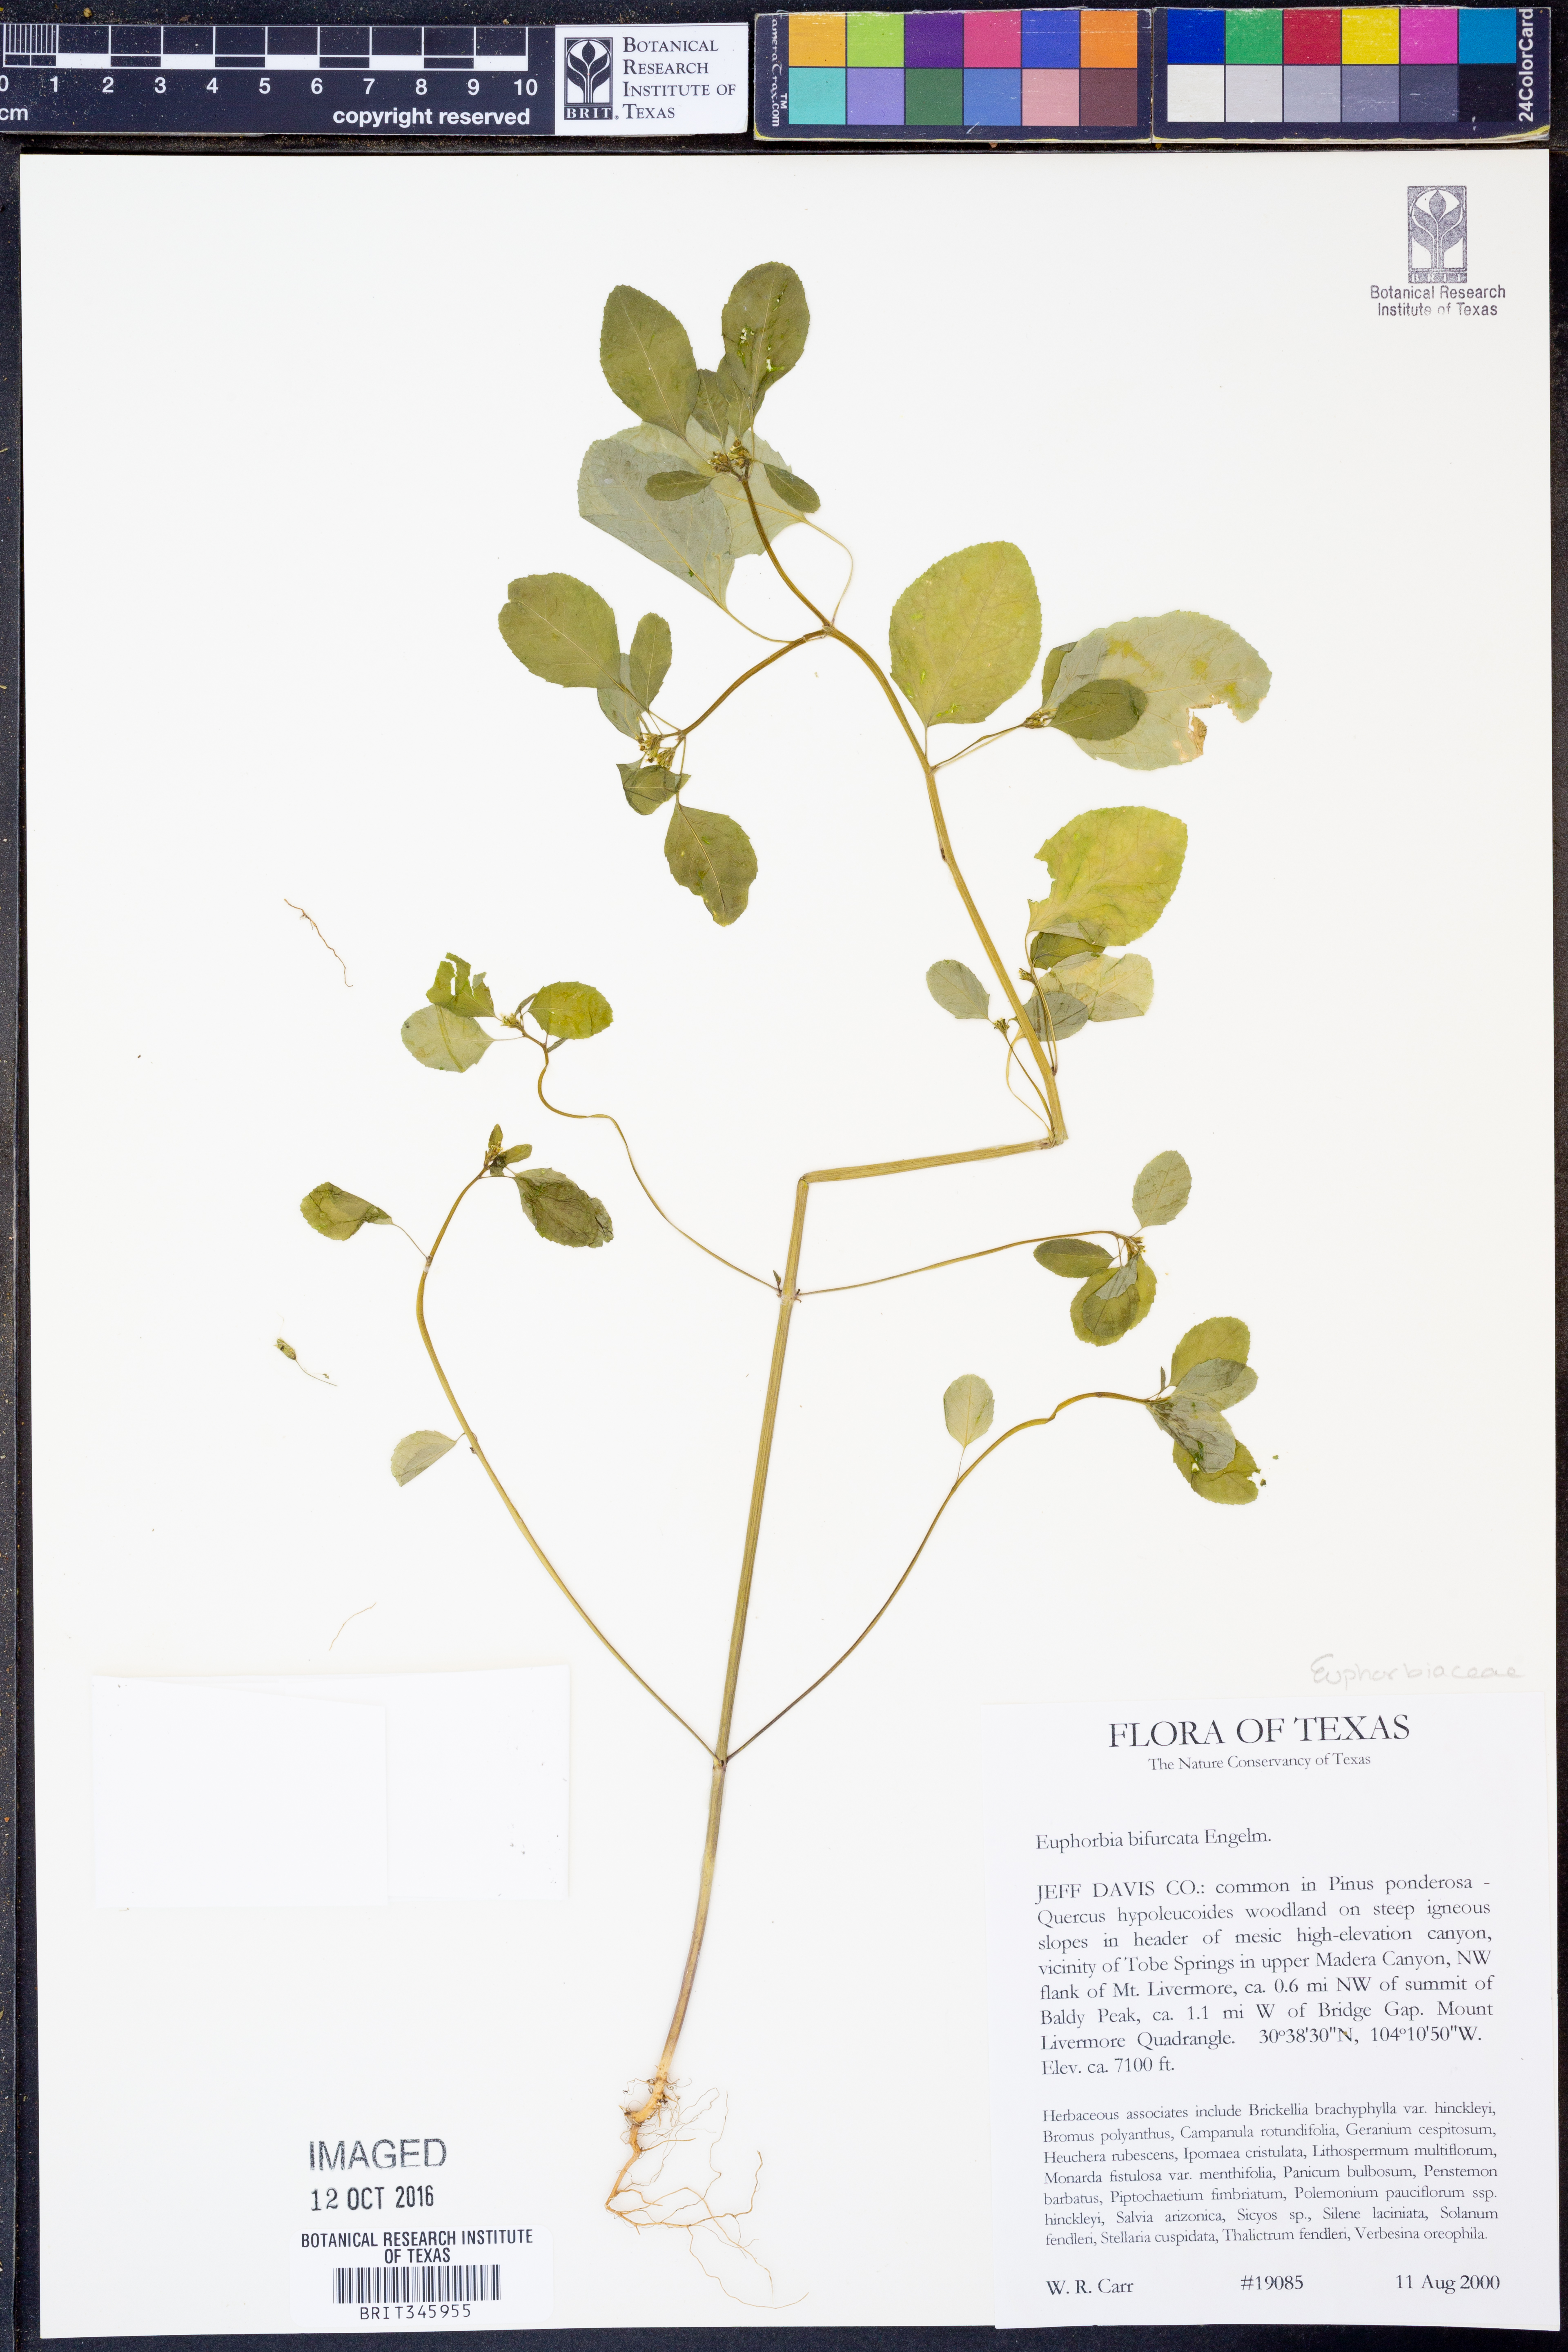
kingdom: Plantae
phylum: Tracheophyta
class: Magnoliopsida
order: Malpighiales
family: Euphorbiaceae
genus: Euphorbia
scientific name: Euphorbia bifurcata
